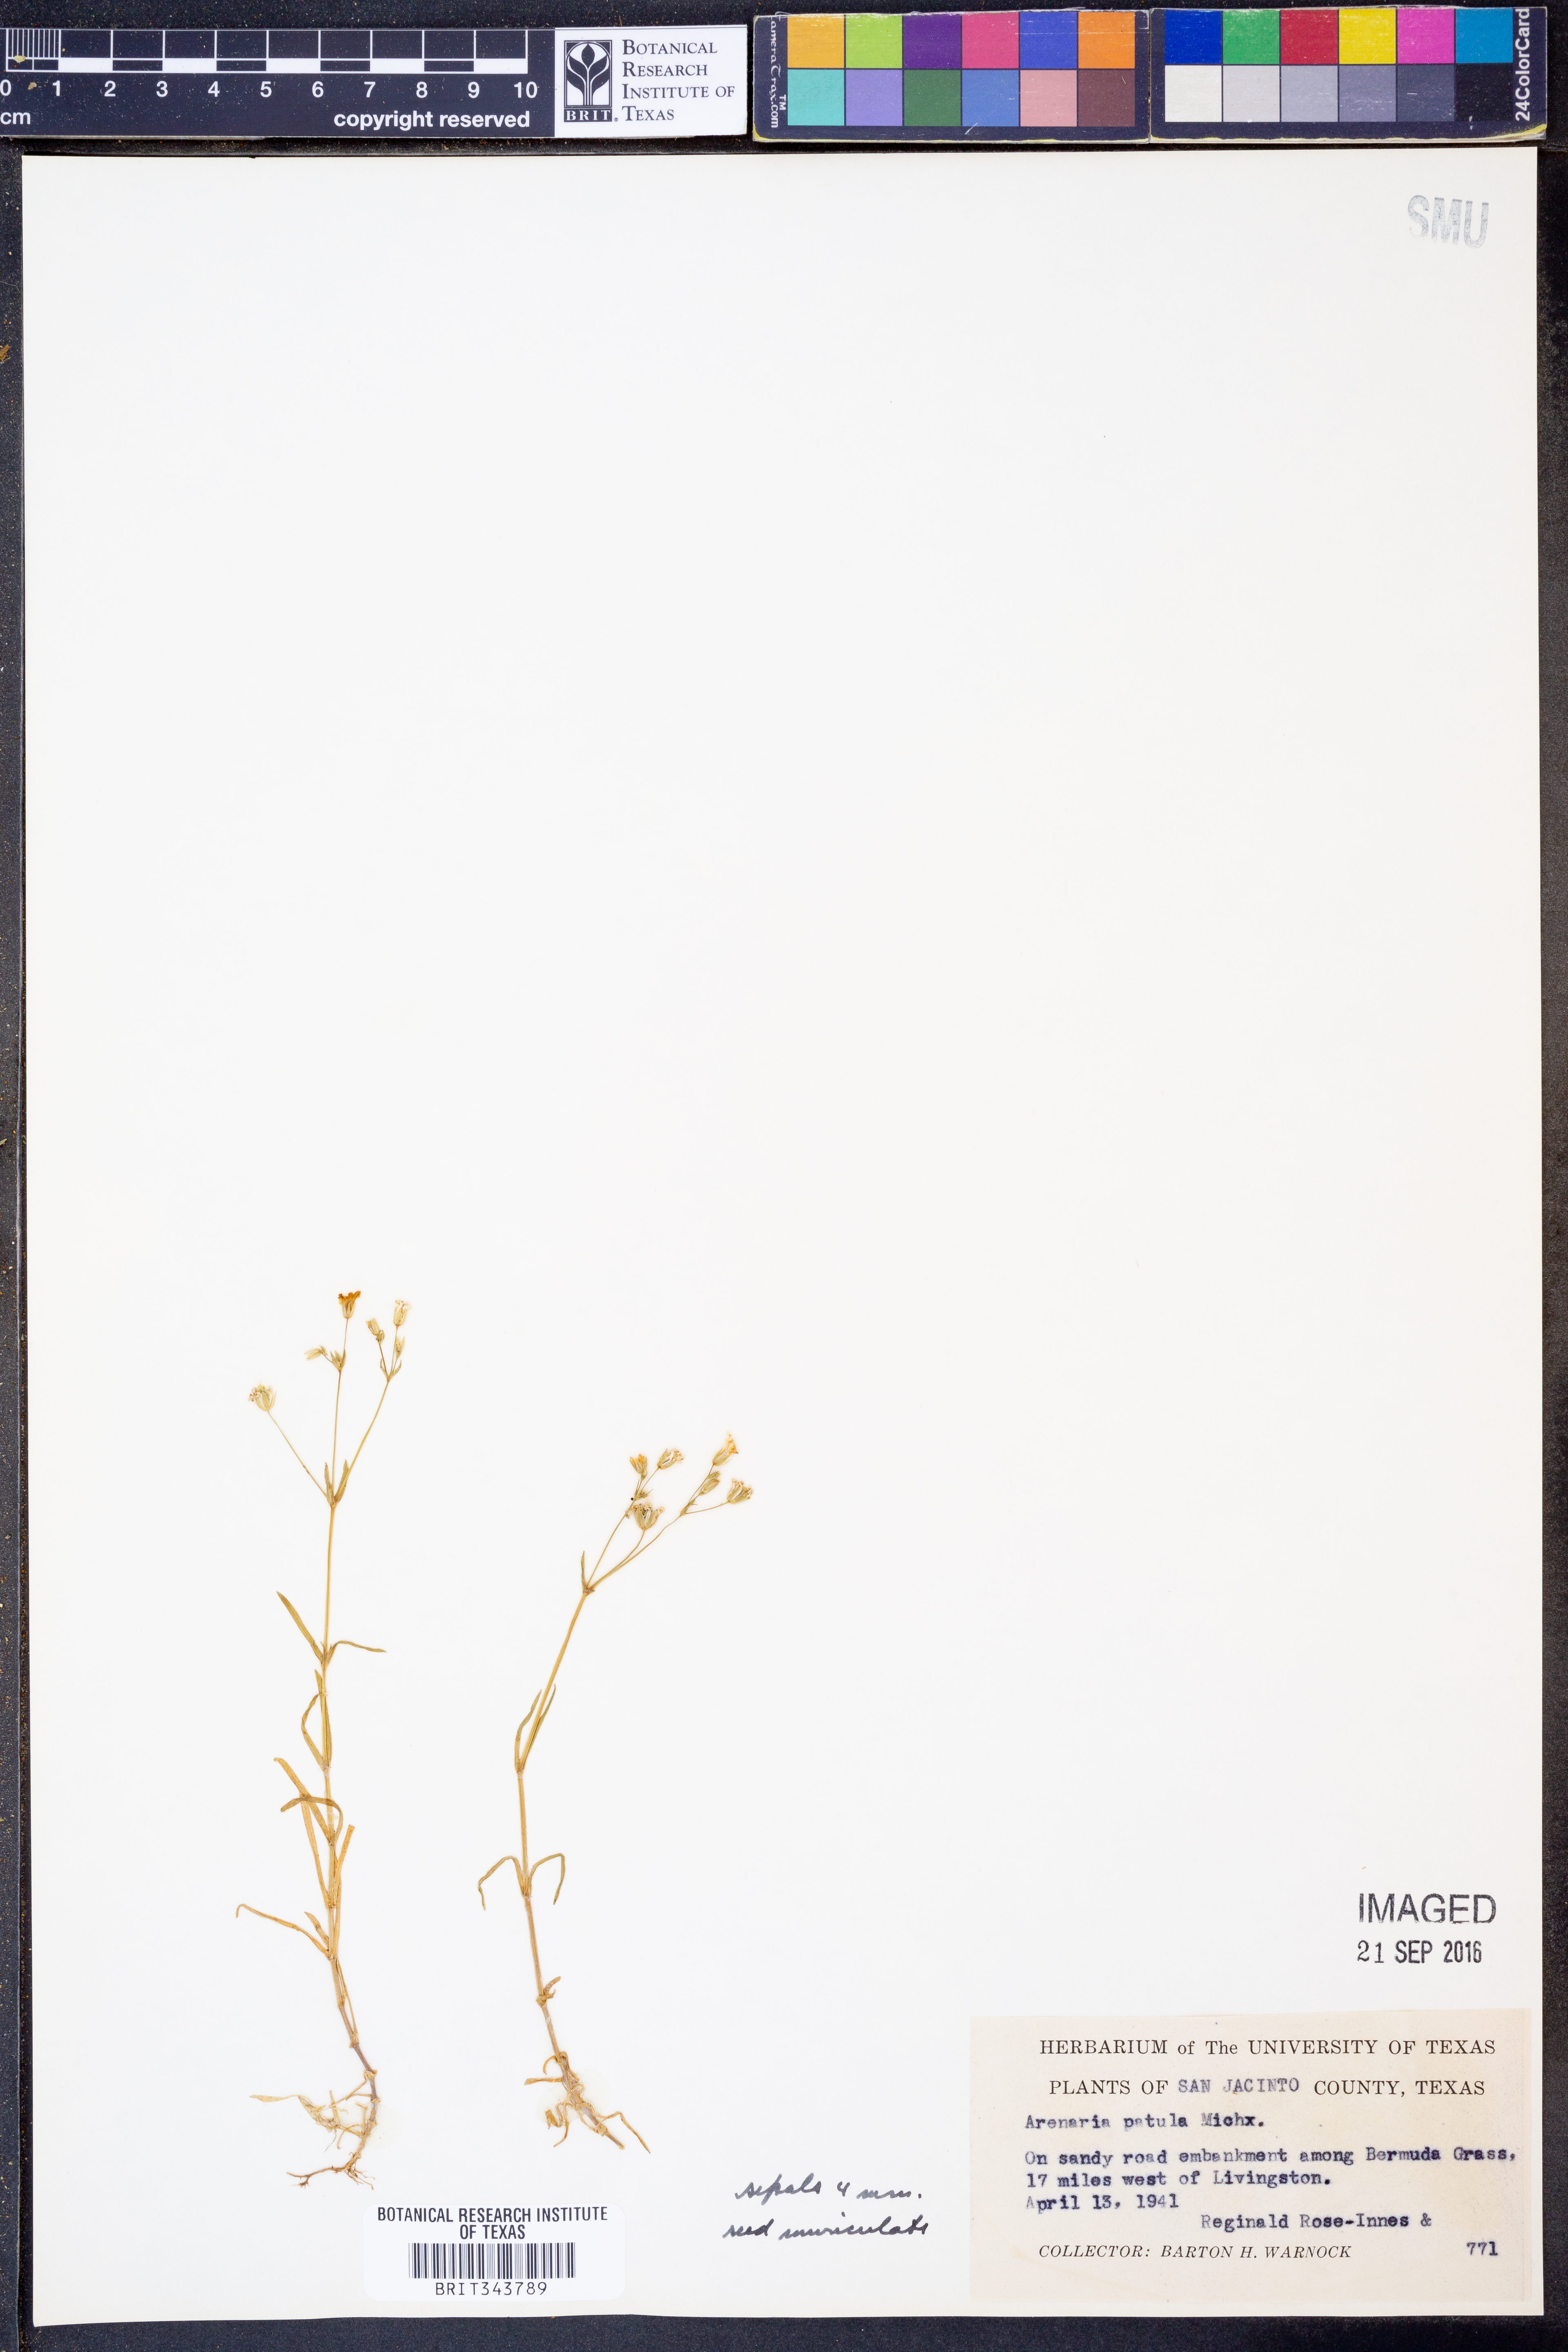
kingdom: Plantae
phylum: Tracheophyta
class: Magnoliopsida
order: Caryophyllales
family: Caryophyllaceae
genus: Mononeuria
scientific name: Mononeuria patula
